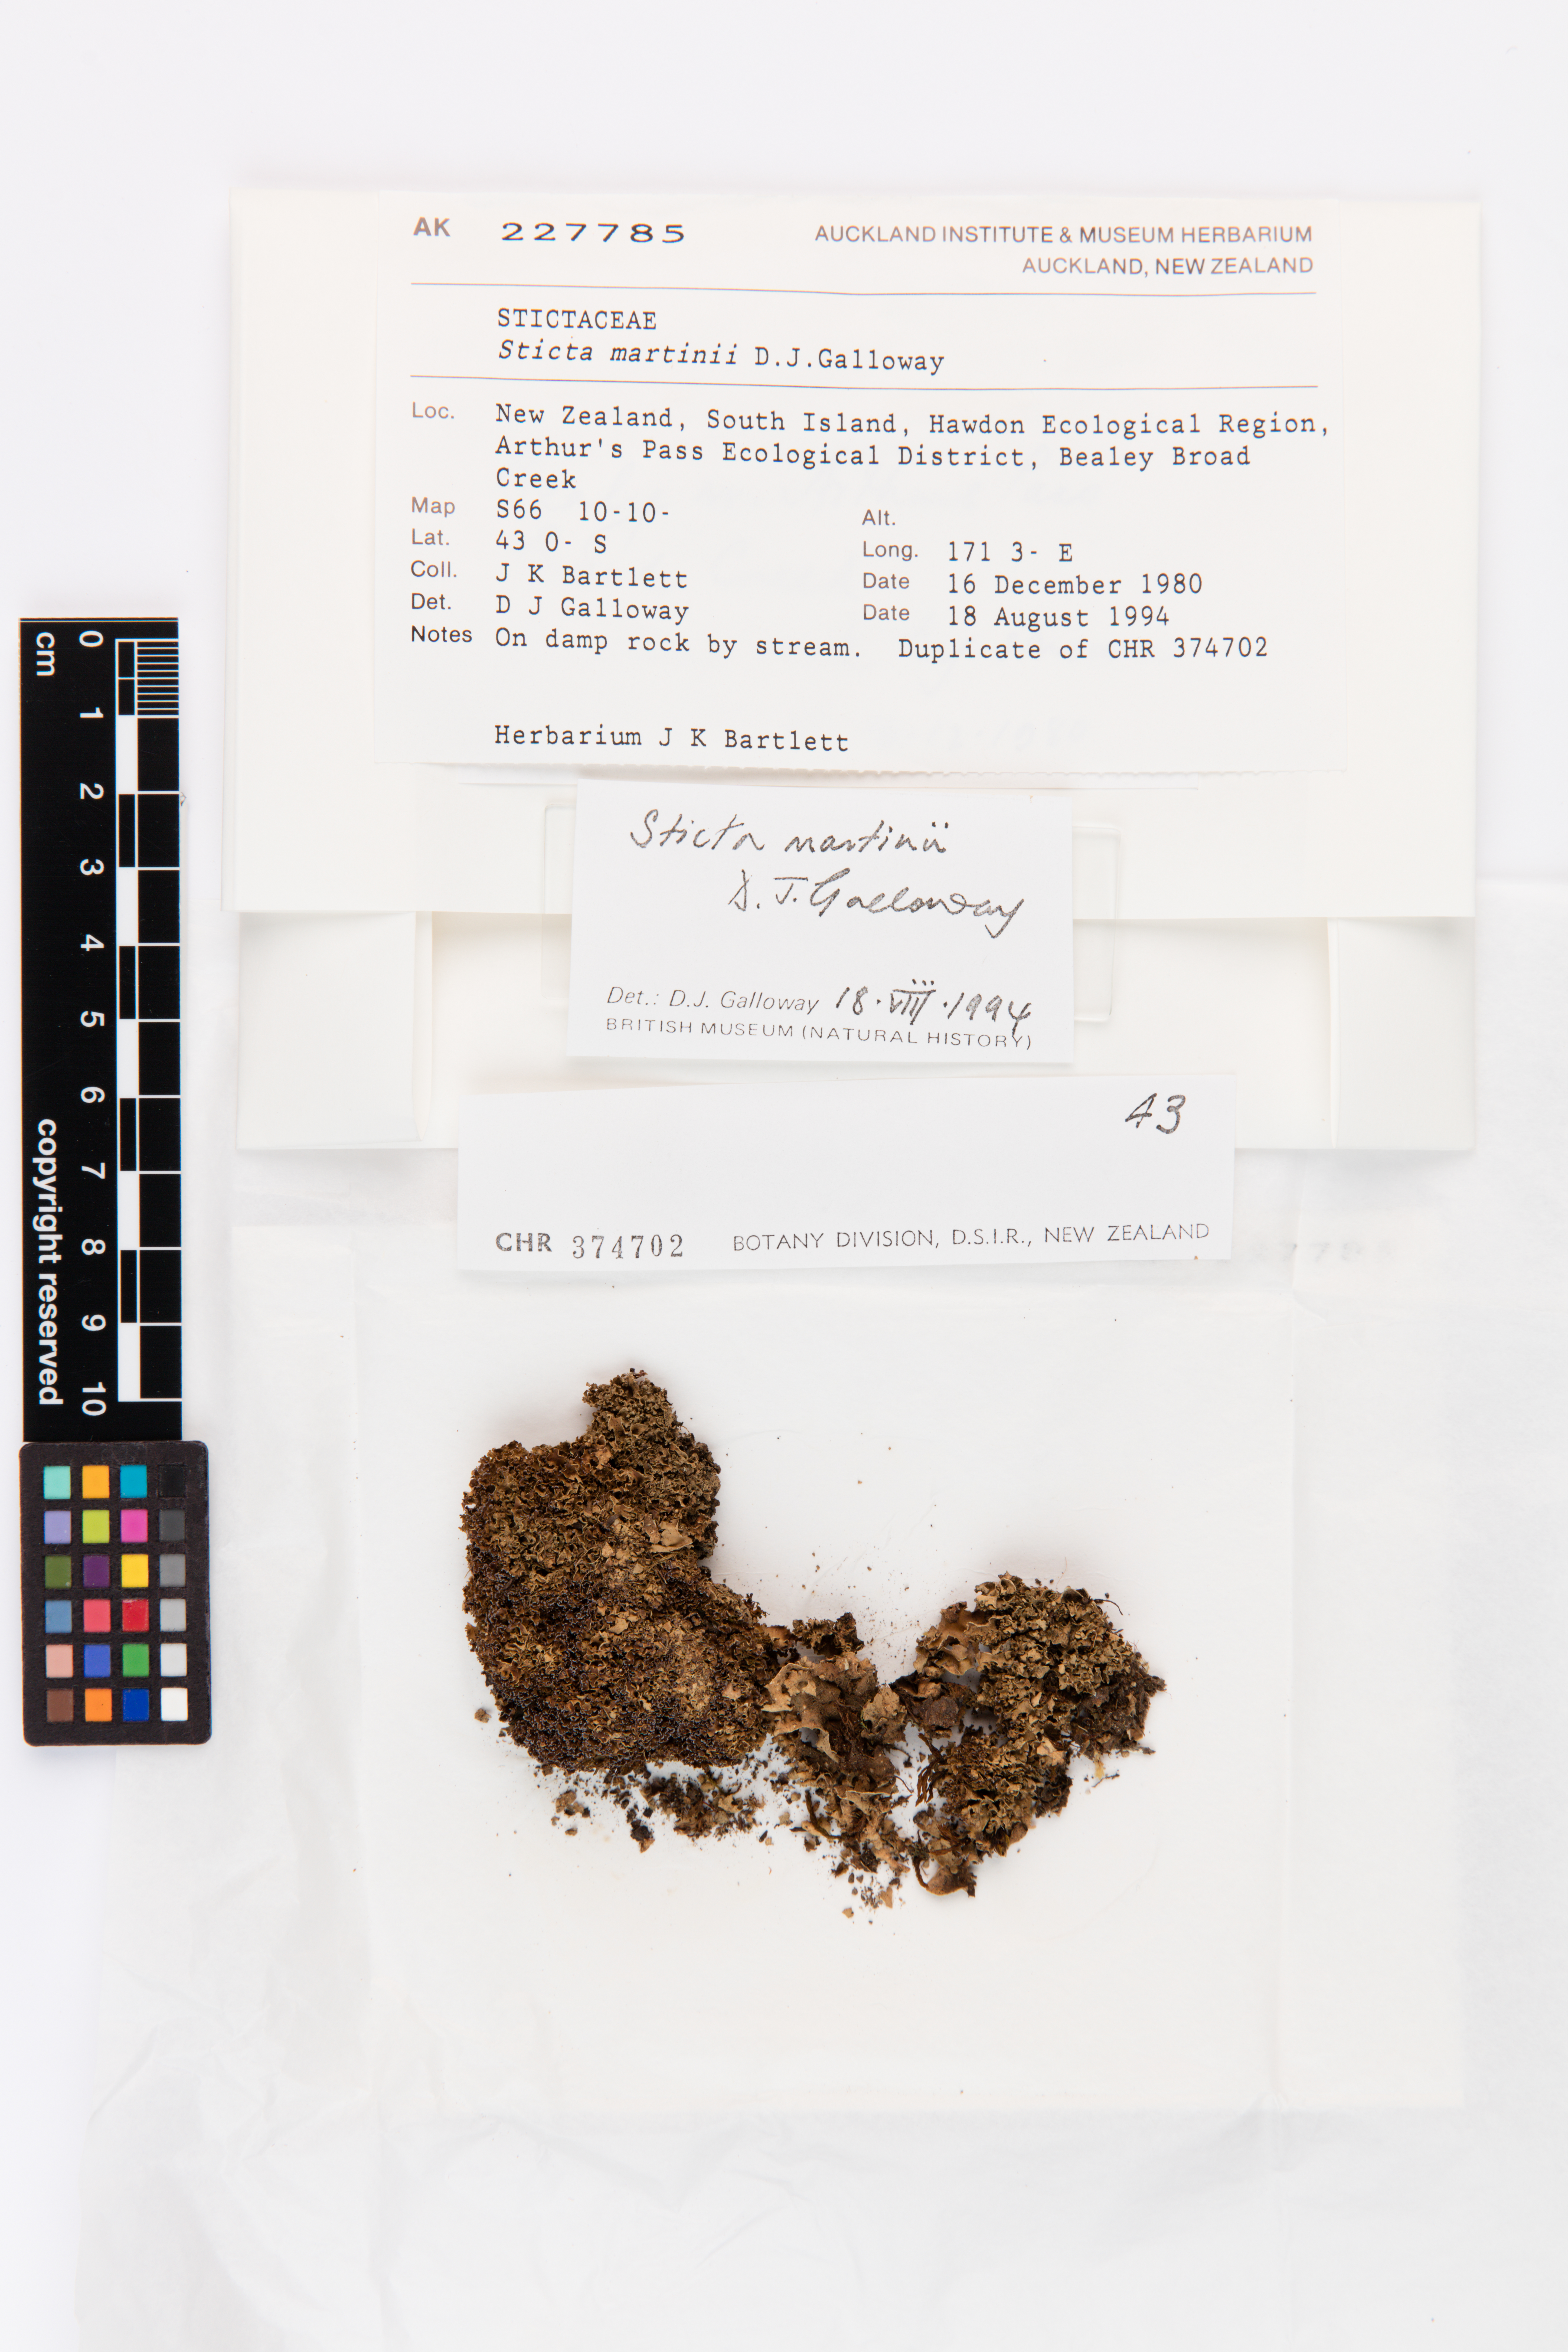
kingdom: Fungi
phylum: Ascomycota
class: Lecanoromycetes
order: Peltigerales
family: Lobariaceae
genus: Sticta
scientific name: Sticta martinii
